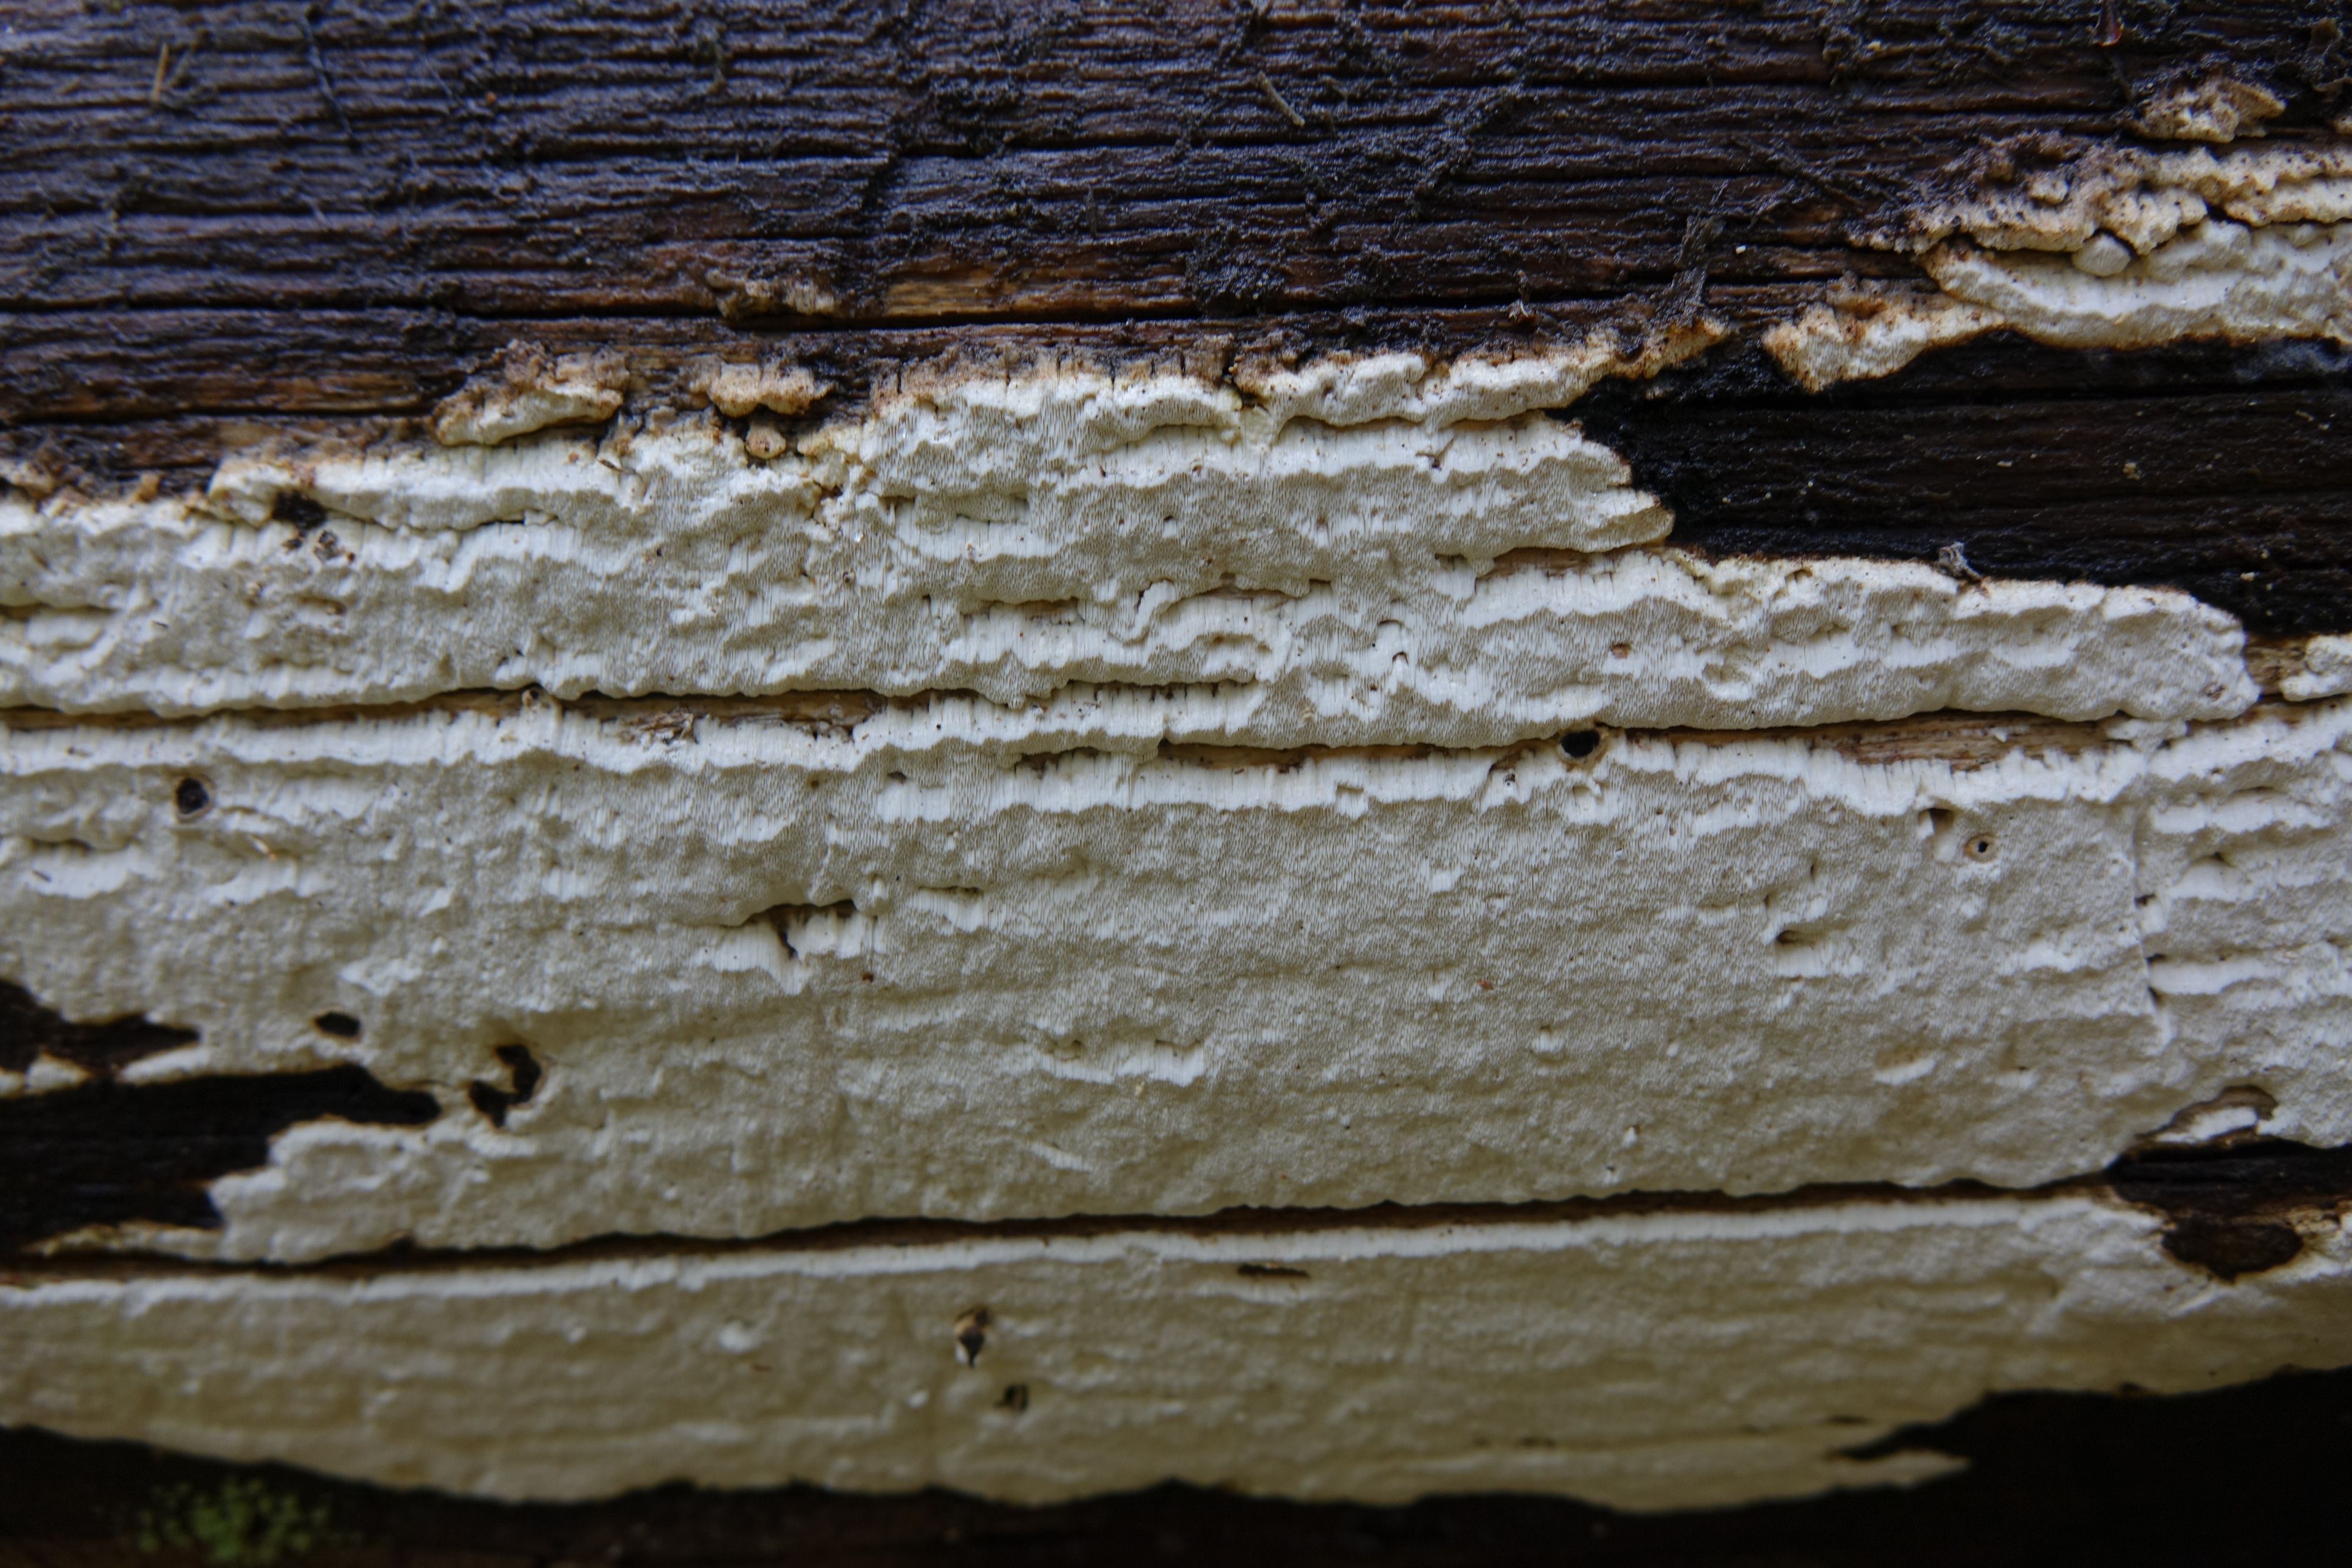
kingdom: Fungi
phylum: Basidiomycota
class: Agaricomycetes
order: Polyporales
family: Fomitopsidaceae
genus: Daedalea
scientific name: Daedalea xantha
